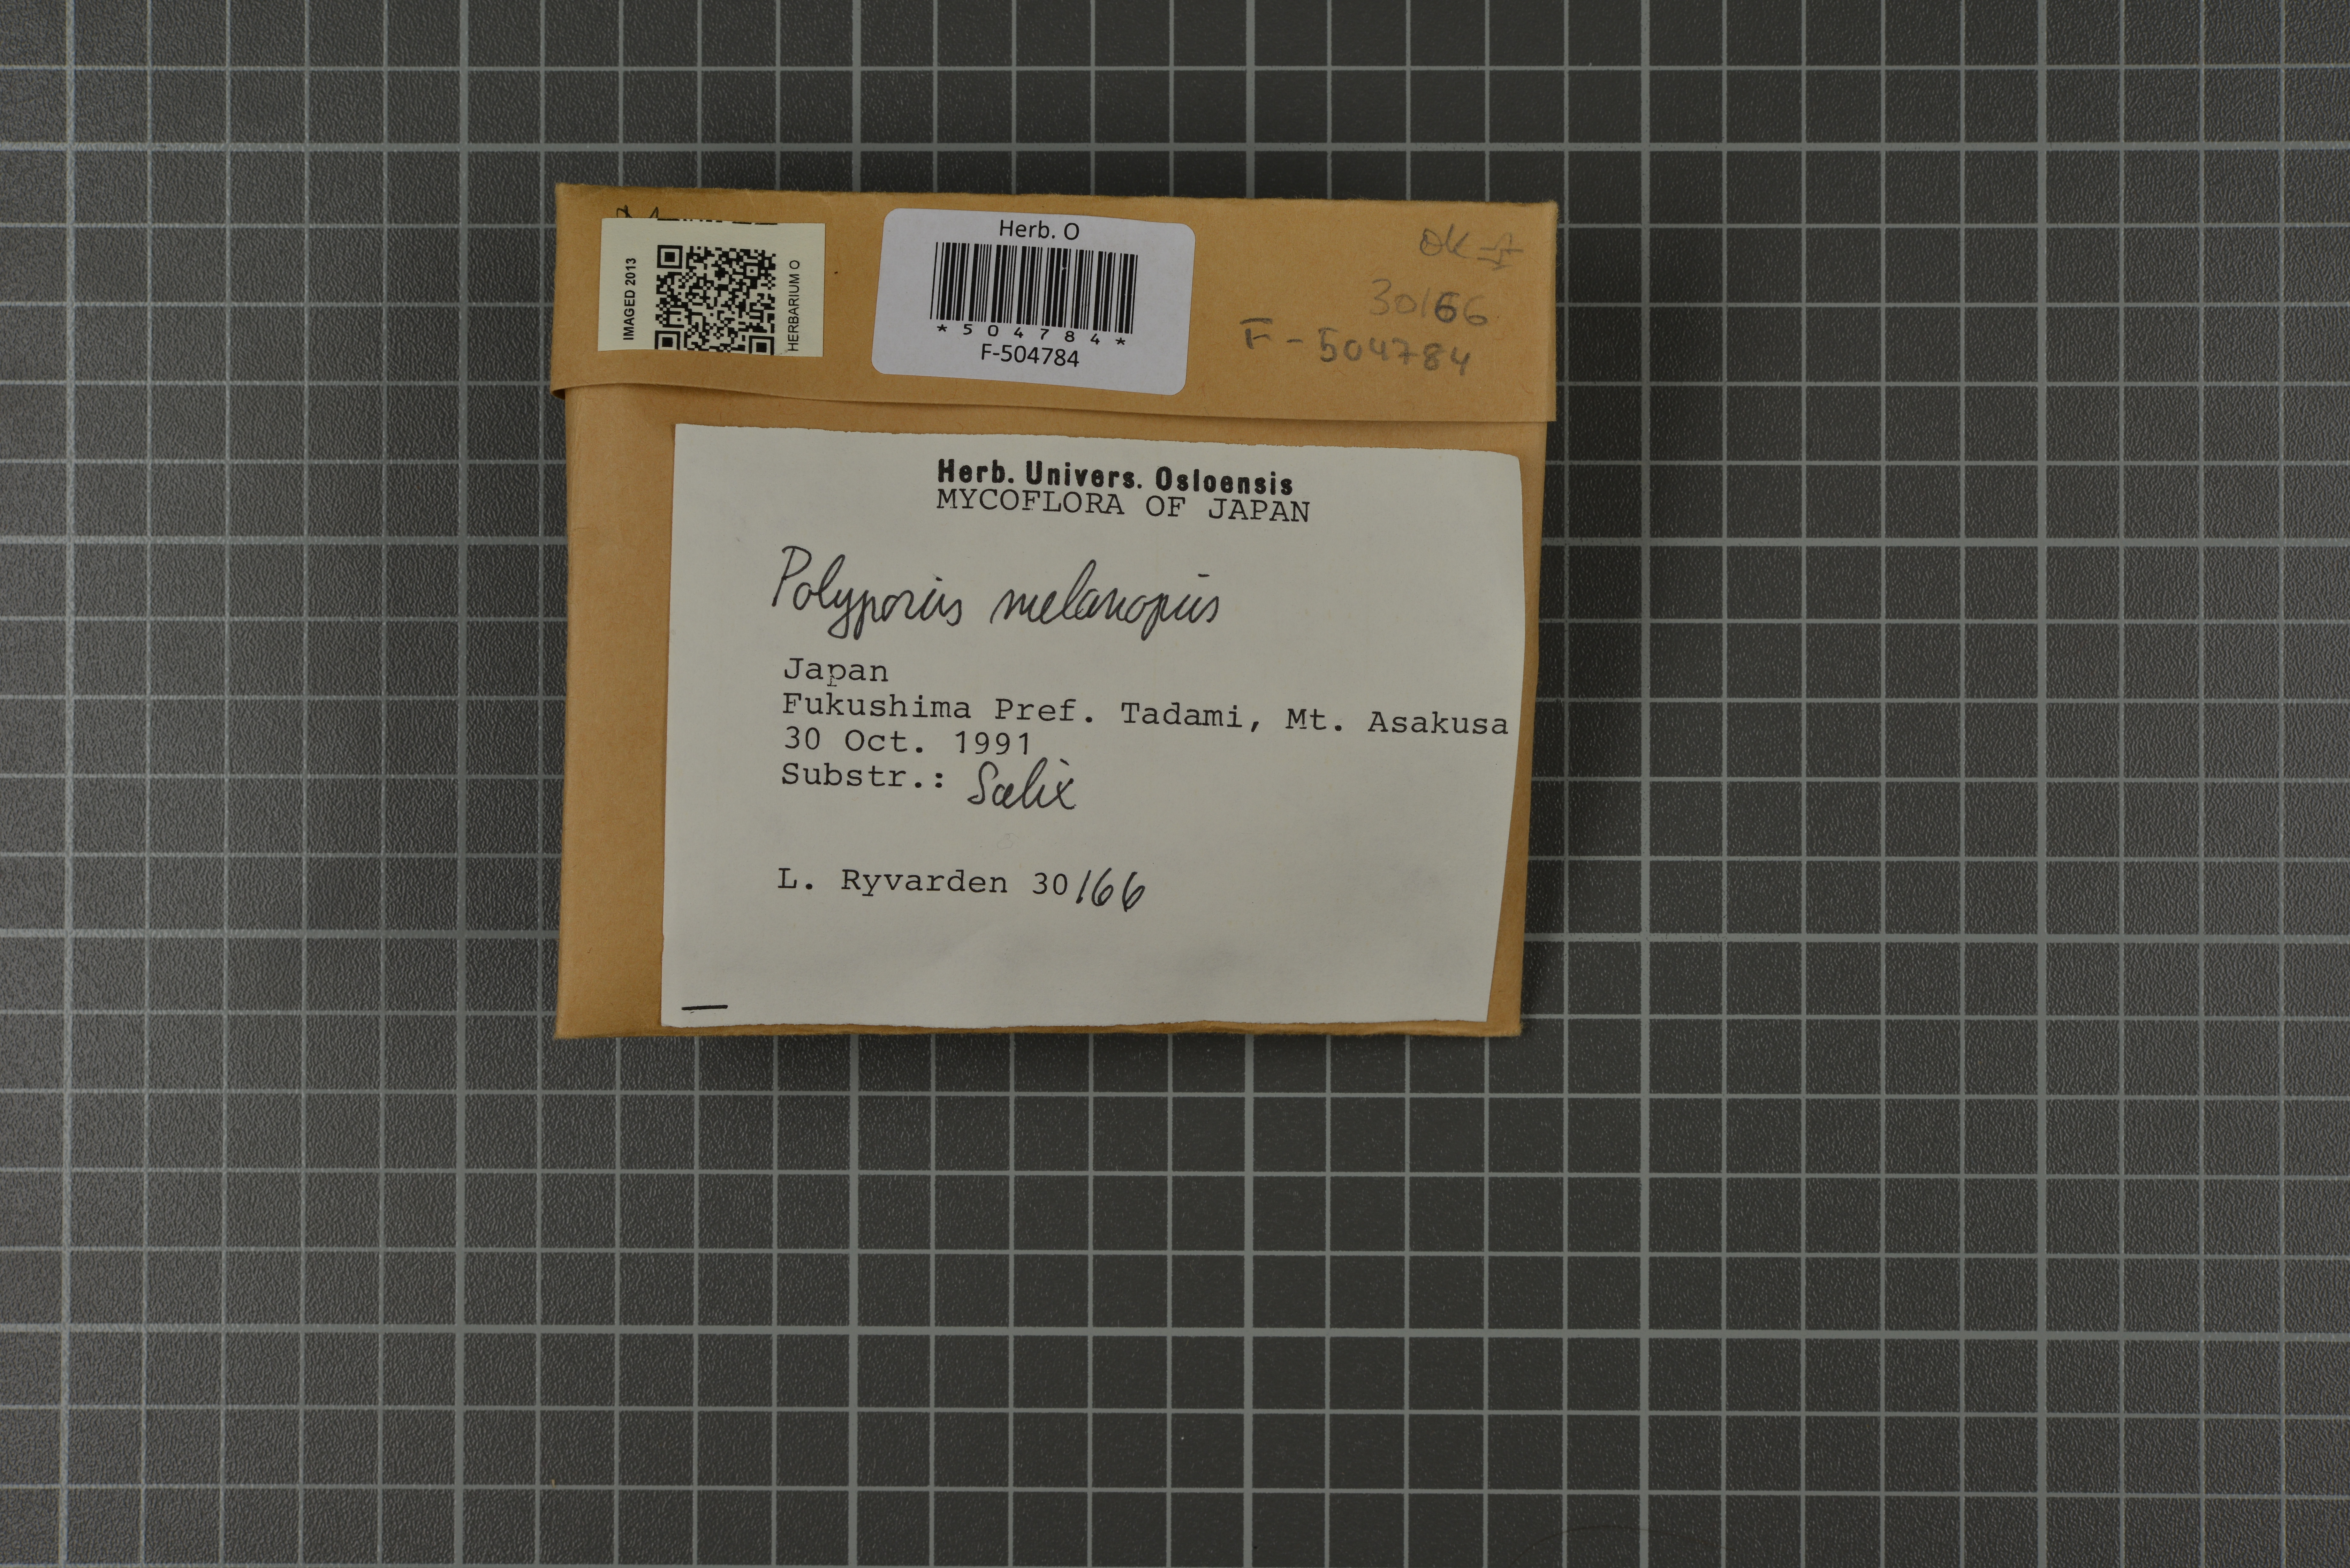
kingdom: Fungi
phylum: Basidiomycota
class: Agaricomycetes
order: Polyporales
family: Polyporaceae
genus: Picipes
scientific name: Picipes melanopus
